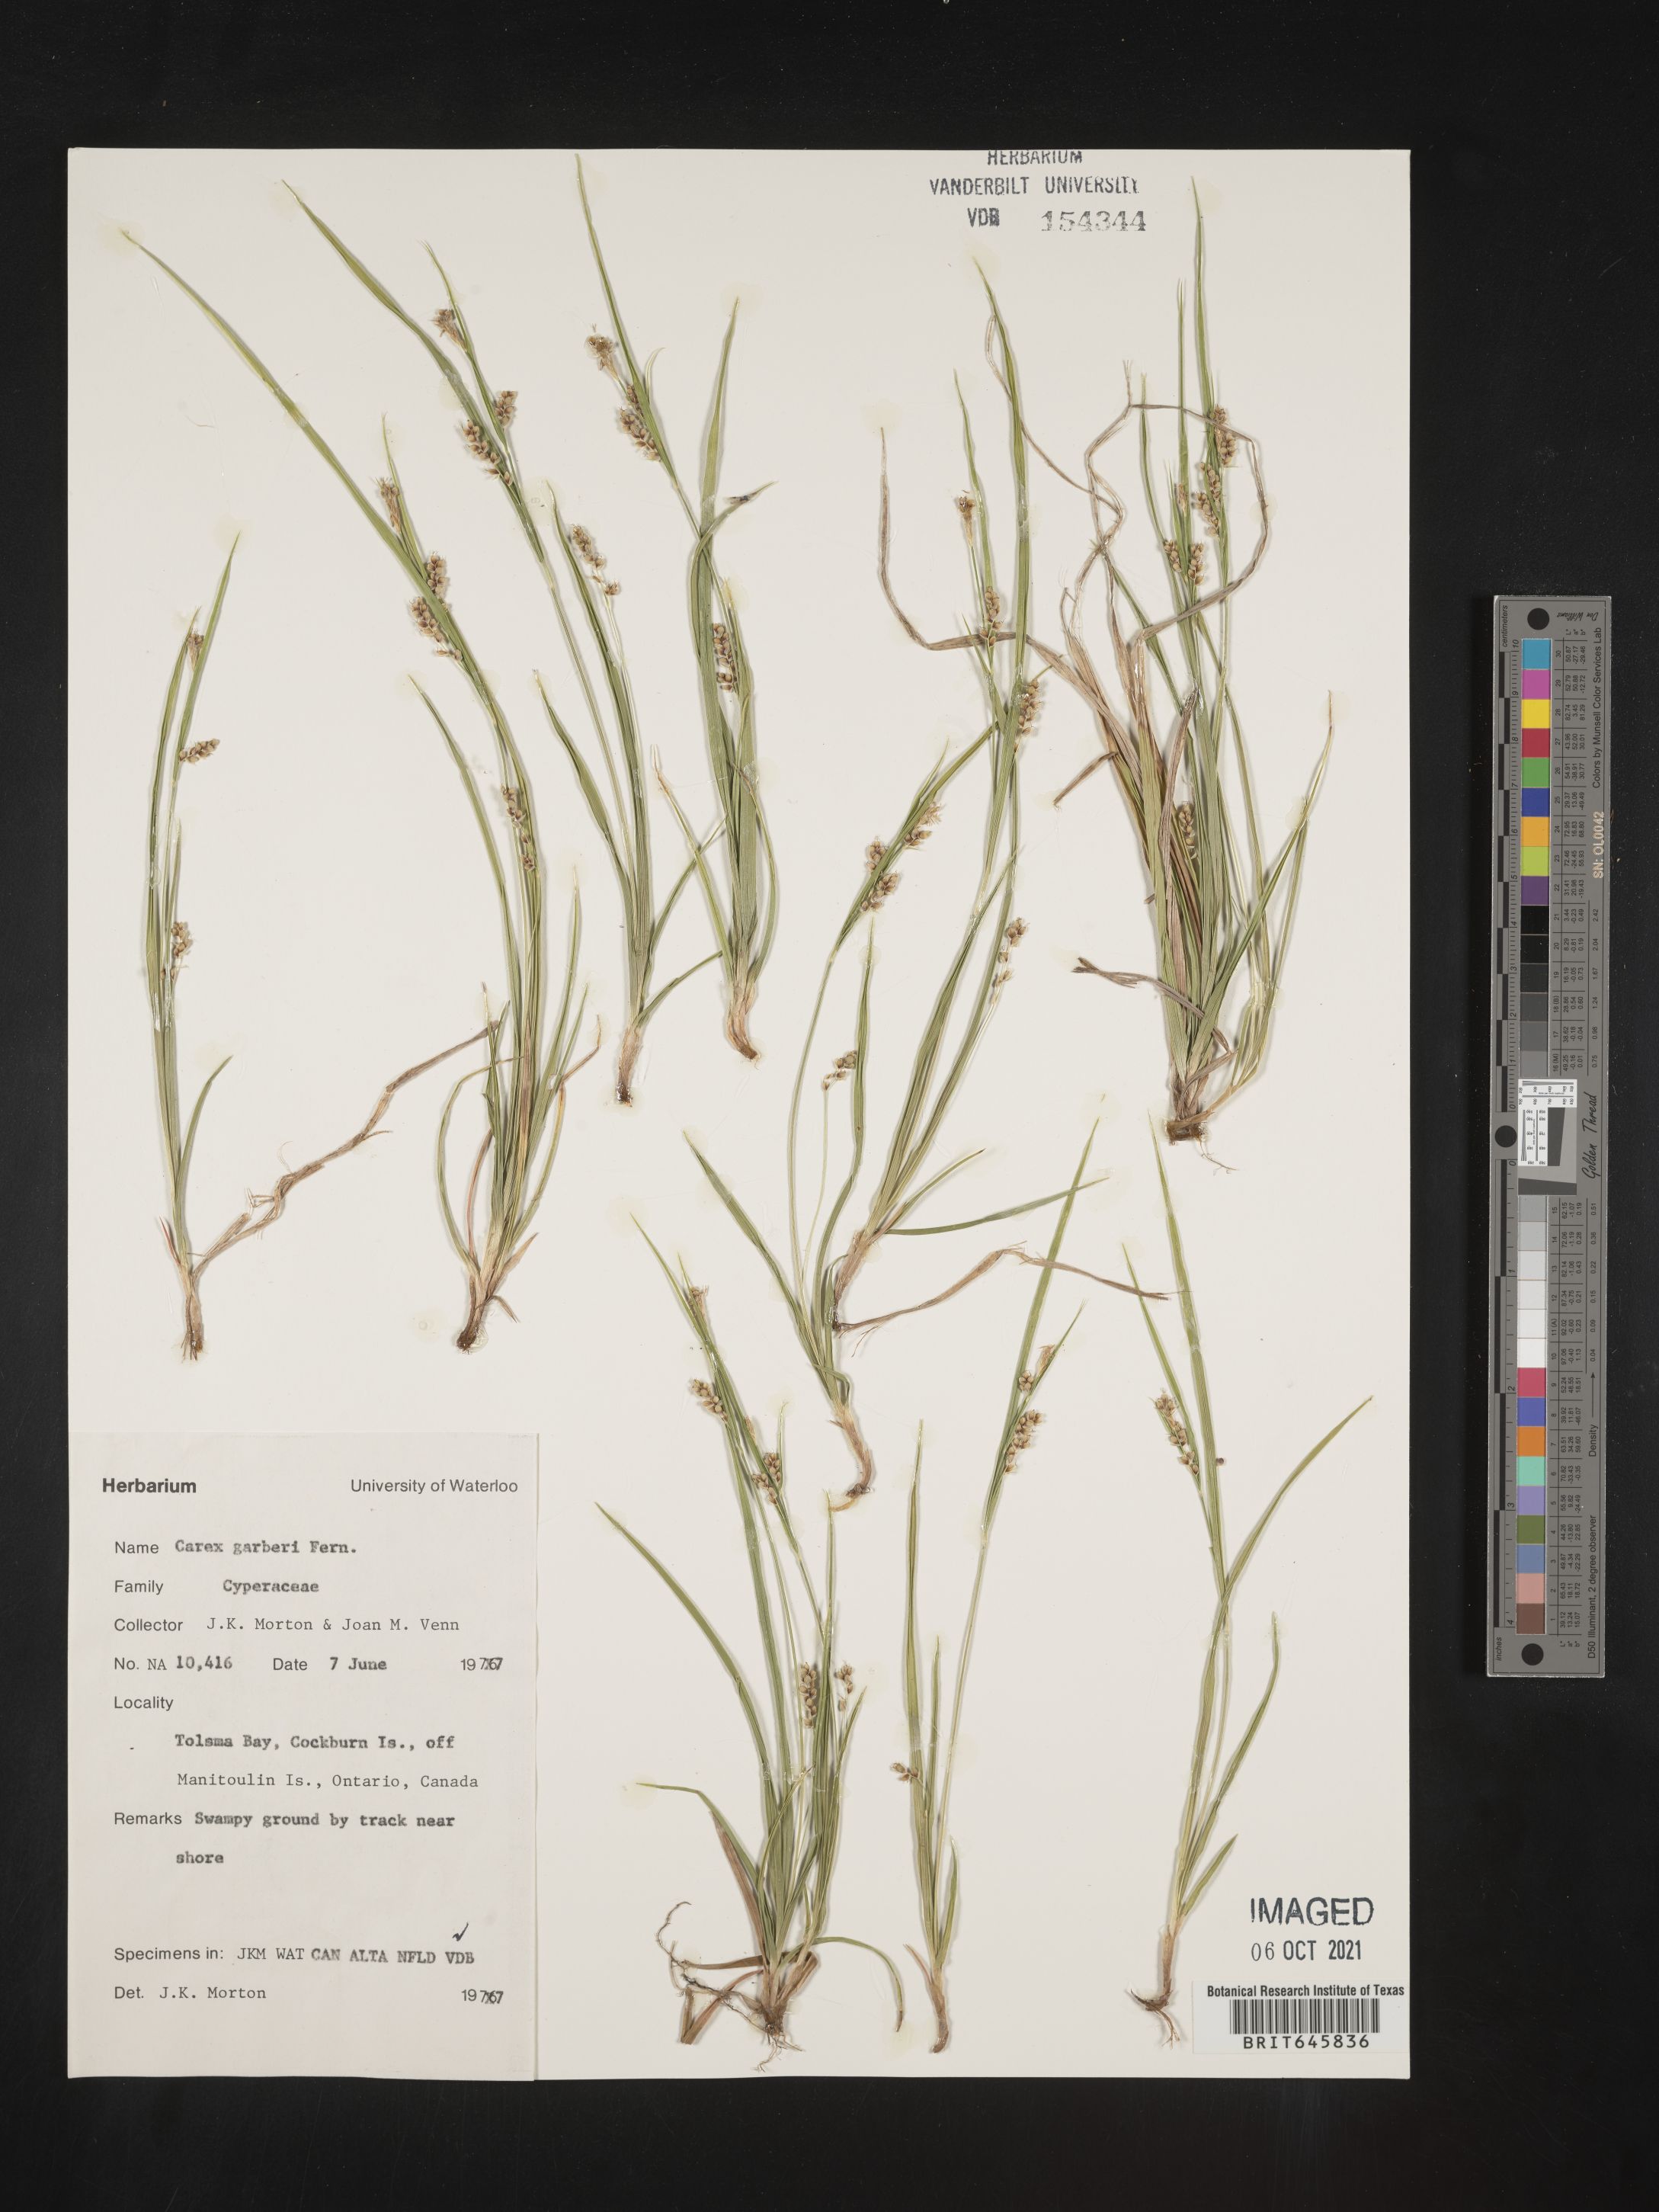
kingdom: Plantae
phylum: Tracheophyta
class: Liliopsida
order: Poales
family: Cyperaceae
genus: Carex
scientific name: Carex garberi
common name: Elk sedge
